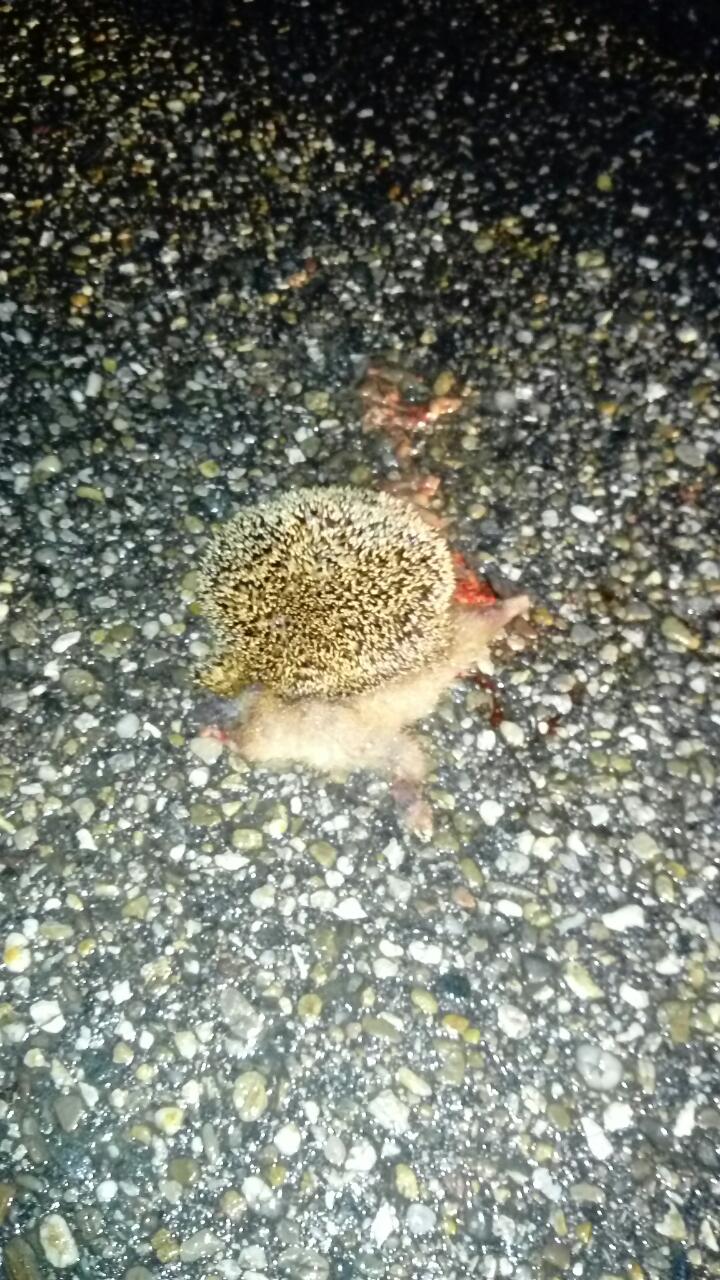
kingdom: Animalia
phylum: Chordata
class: Mammalia
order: Erinaceomorpha
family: Erinaceidae
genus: Erinaceus
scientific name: Erinaceus
